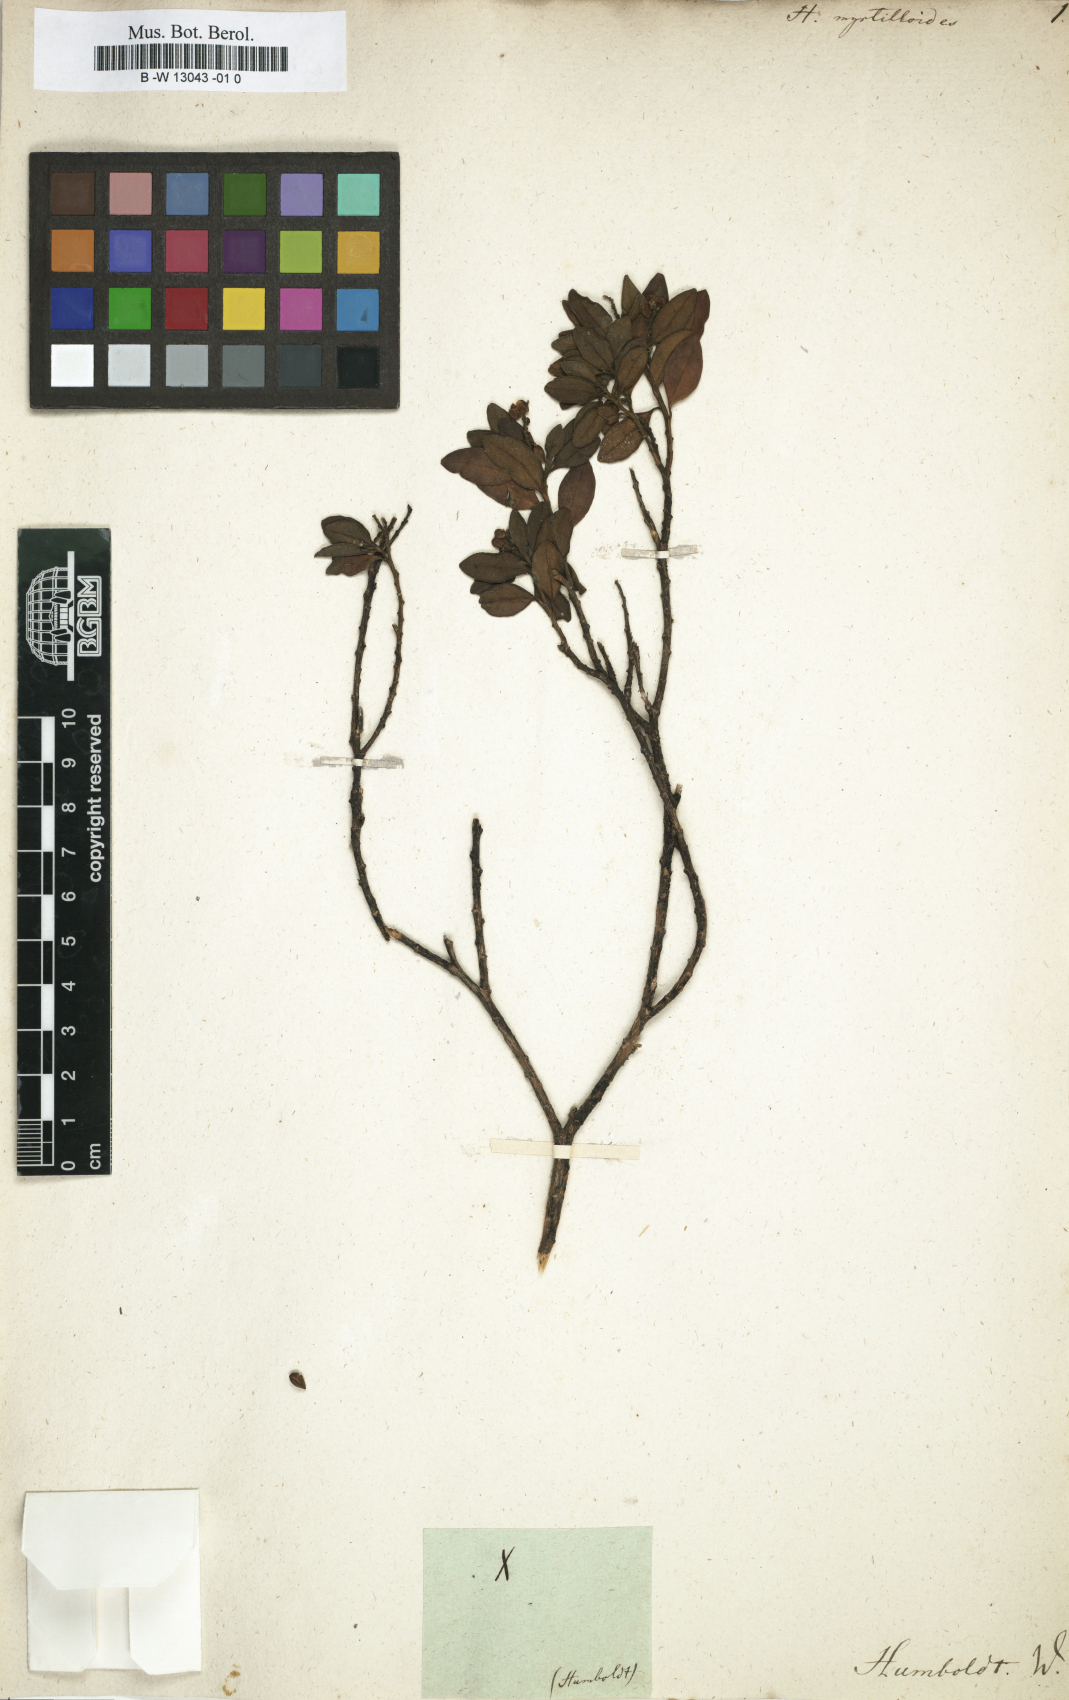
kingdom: Plantae
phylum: Tracheophyta
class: Magnoliopsida
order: Fabales
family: Polygalaceae
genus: Monnina
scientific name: Monnina conferta
